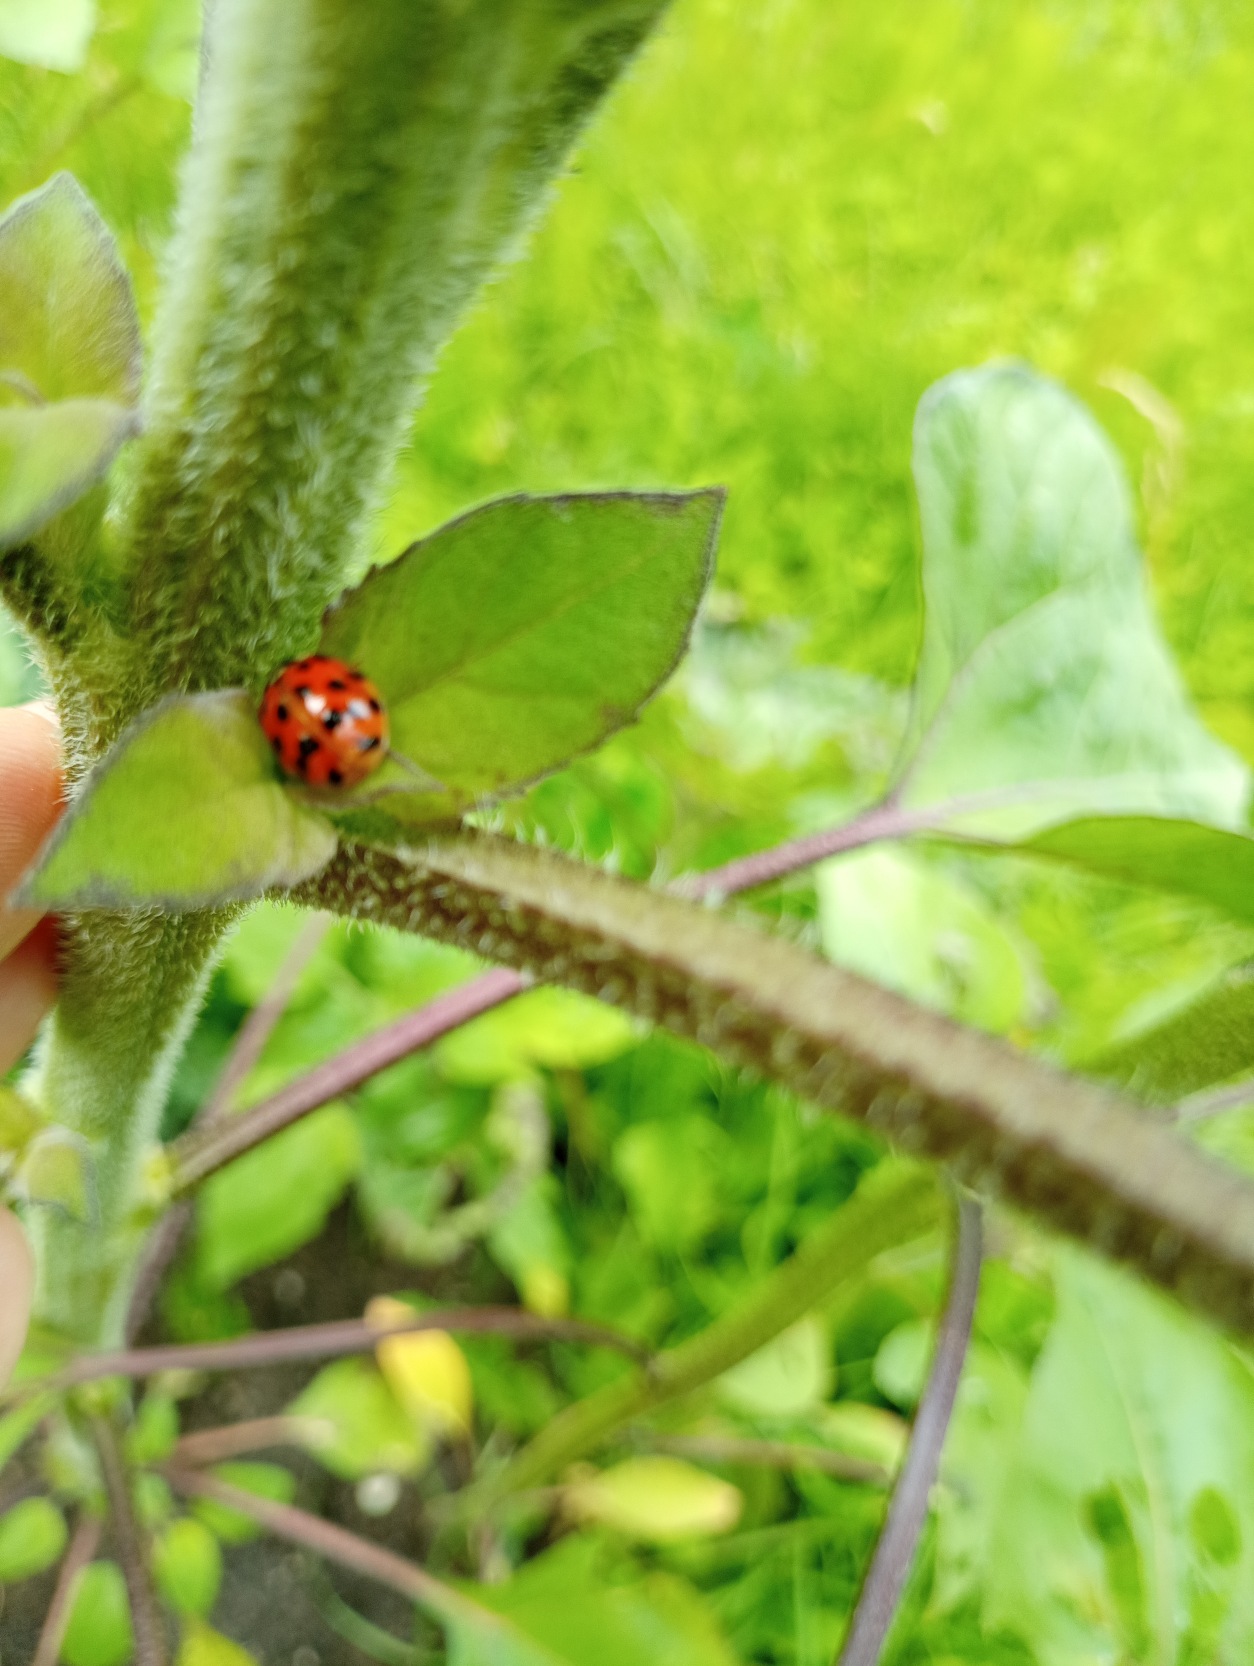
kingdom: Animalia
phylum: Arthropoda
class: Insecta
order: Coleoptera
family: Coccinellidae
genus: Harmonia
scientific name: Harmonia axyridis
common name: Harlekinmariehøne
